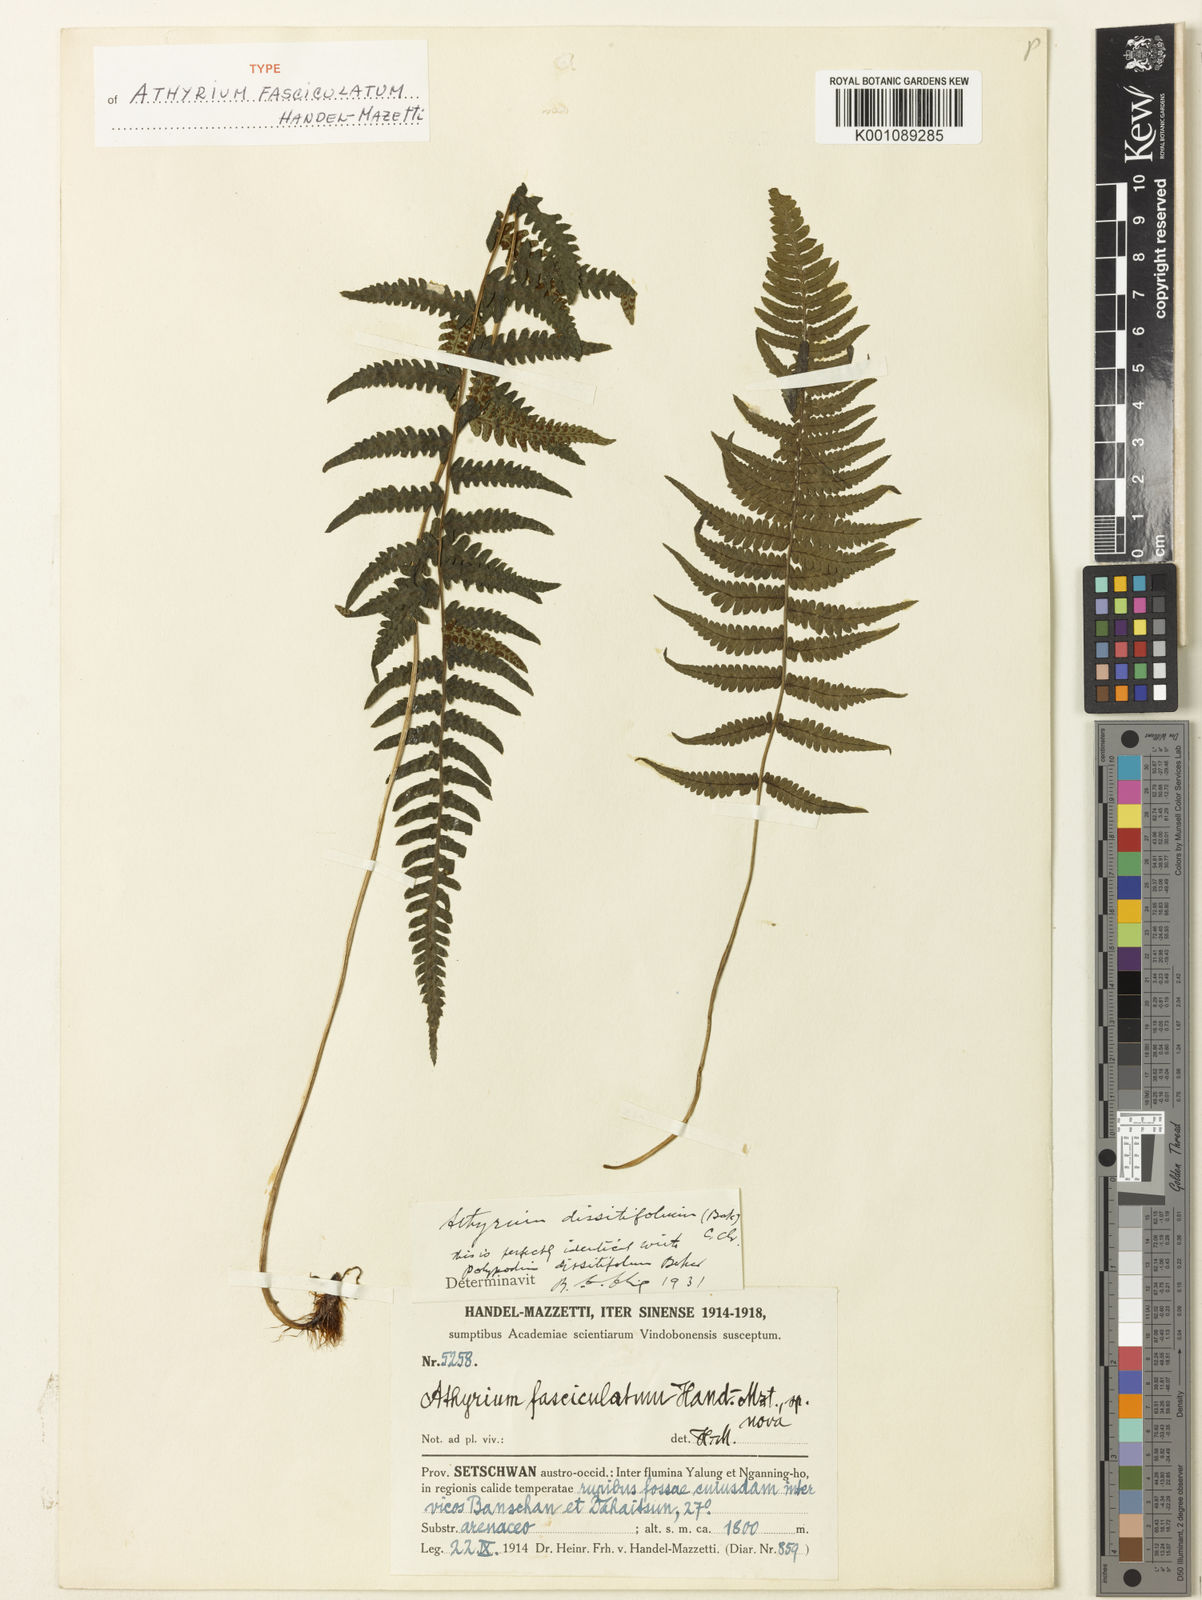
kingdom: Plantae
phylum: Tracheophyta
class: Polypodiopsida
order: Polypodiales
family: Athyriaceae
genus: Athyrium
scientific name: Athyrium dissitifolium
